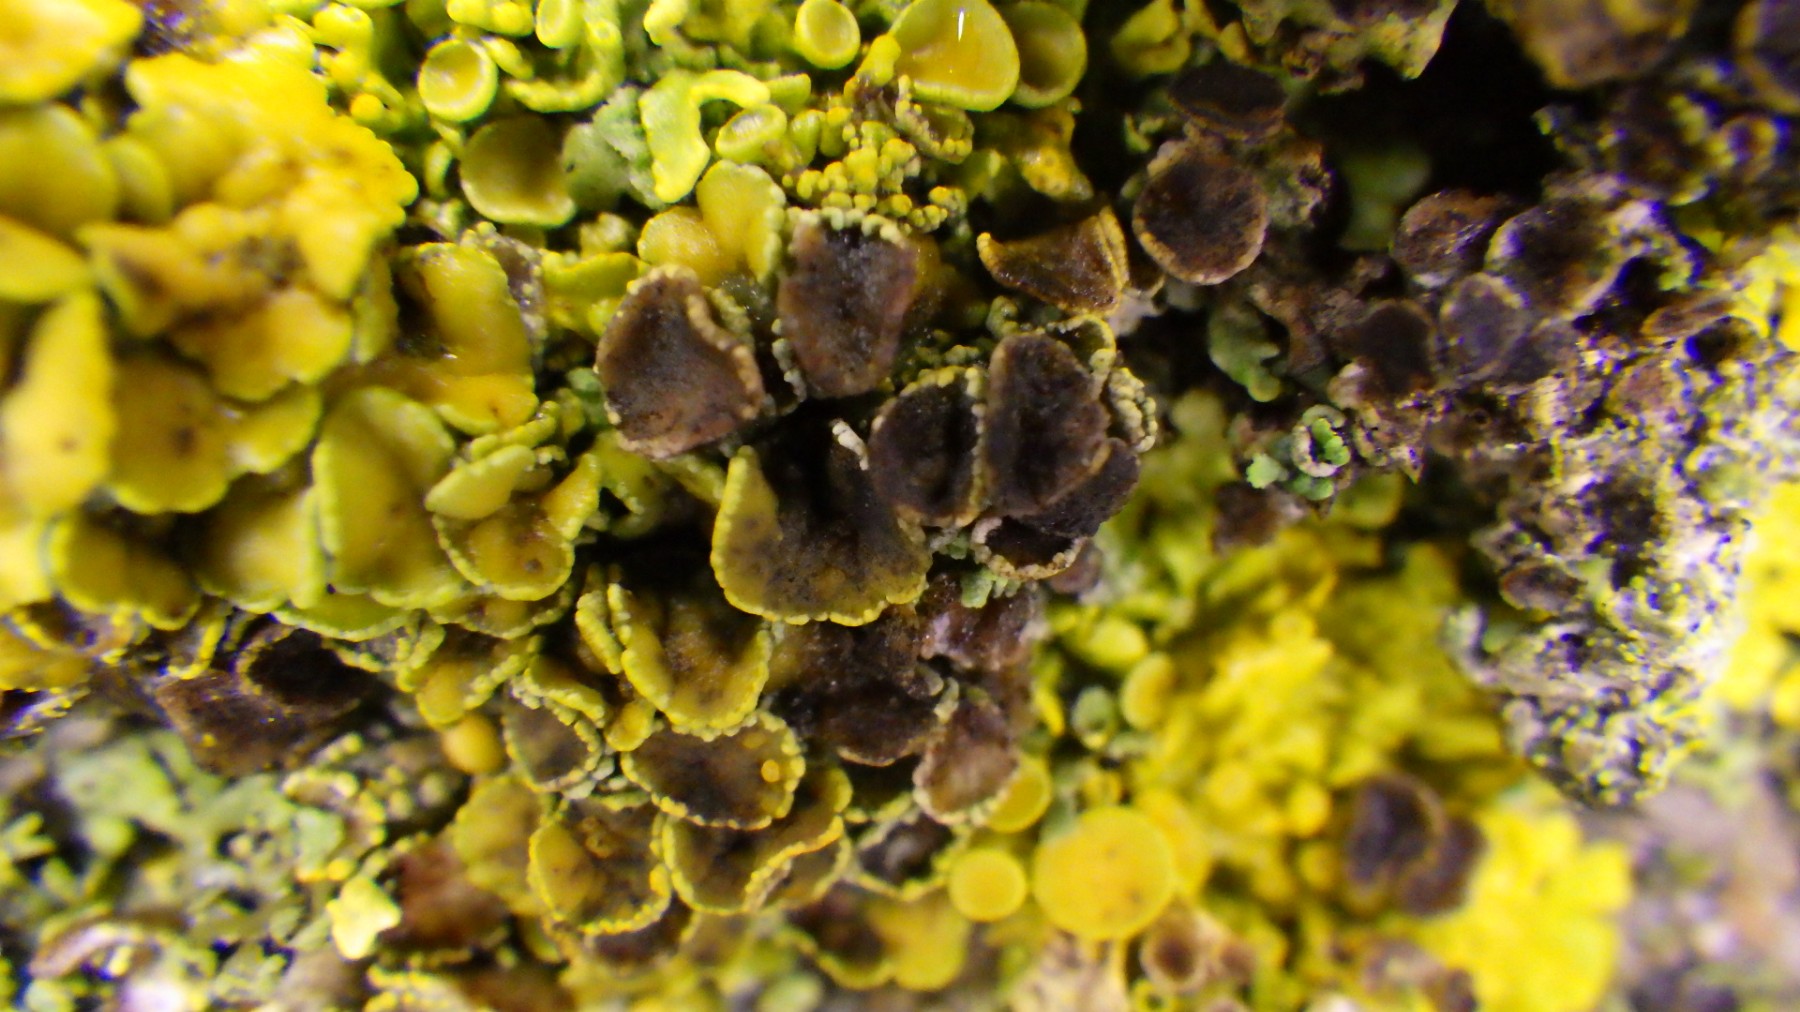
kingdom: Fungi
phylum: Ascomycota
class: Dothideomycetes
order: Mycosphaerellales
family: Teratosphaeriaceae
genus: Xanthoriicola
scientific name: Xanthoriicola physciae
